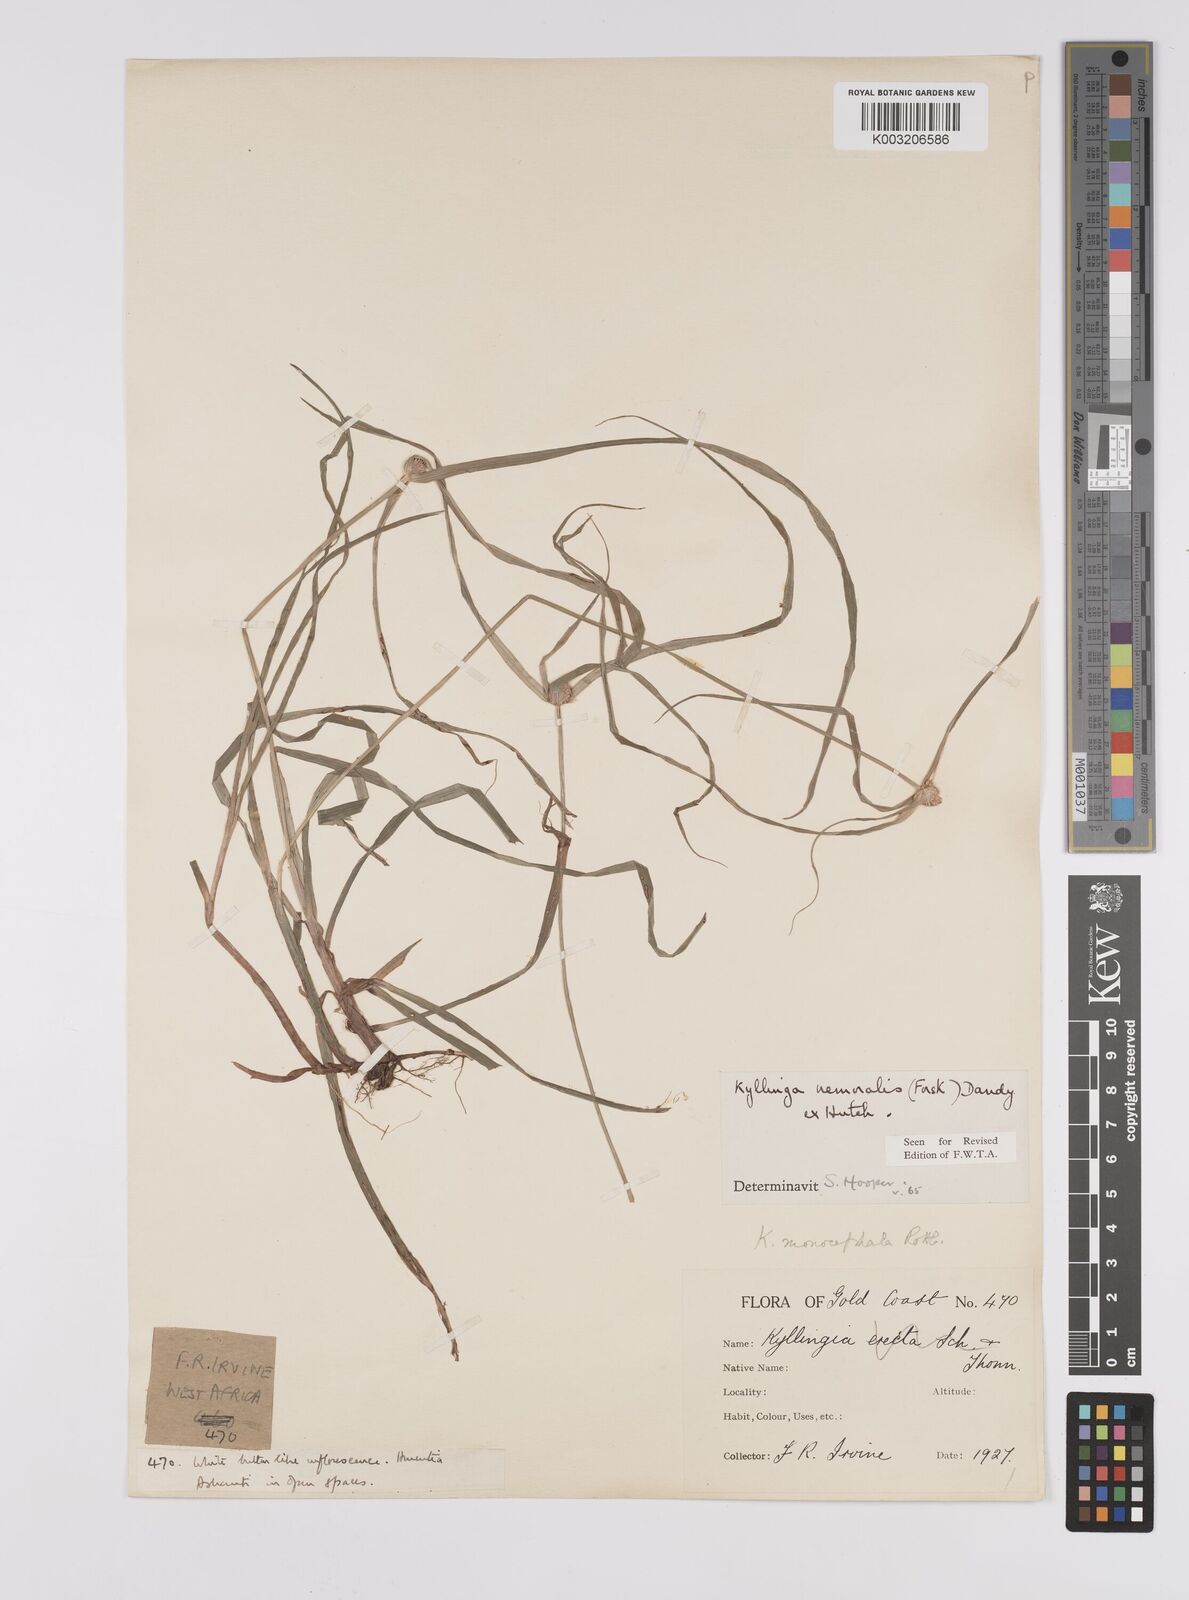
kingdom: Plantae
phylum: Tracheophyta
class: Liliopsida
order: Poales
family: Cyperaceae
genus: Cyperus
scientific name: Cyperus nemoralis
